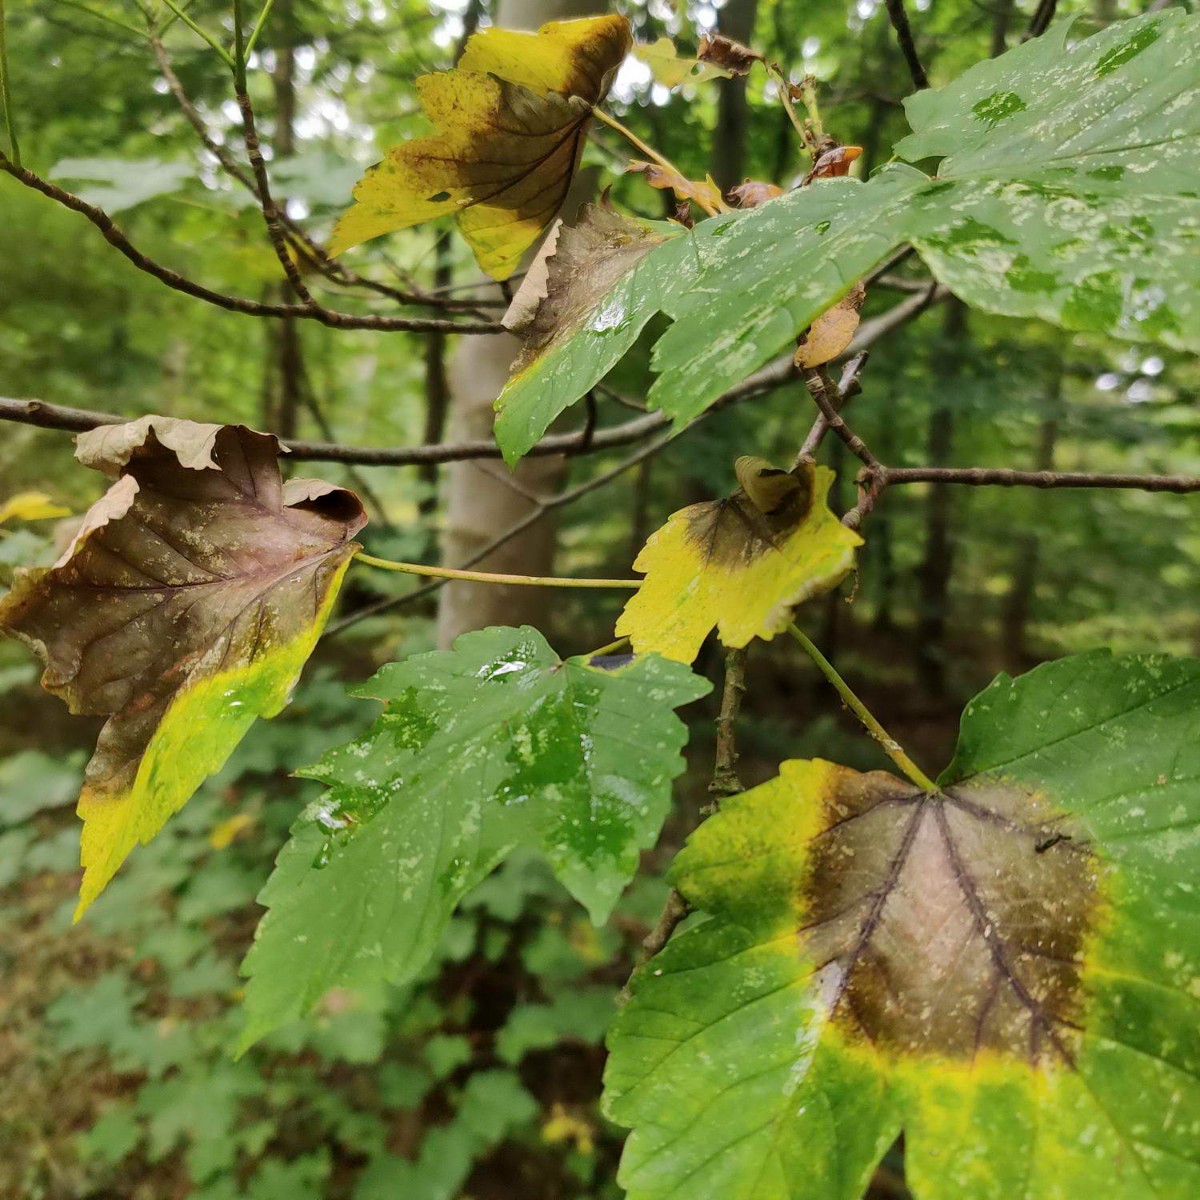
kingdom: Fungi
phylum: Ascomycota
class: Sordariomycetes
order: Diaporthales
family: Gnomoniaceae
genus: Pleuroceras
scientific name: Pleuroceras pseudoplatani
